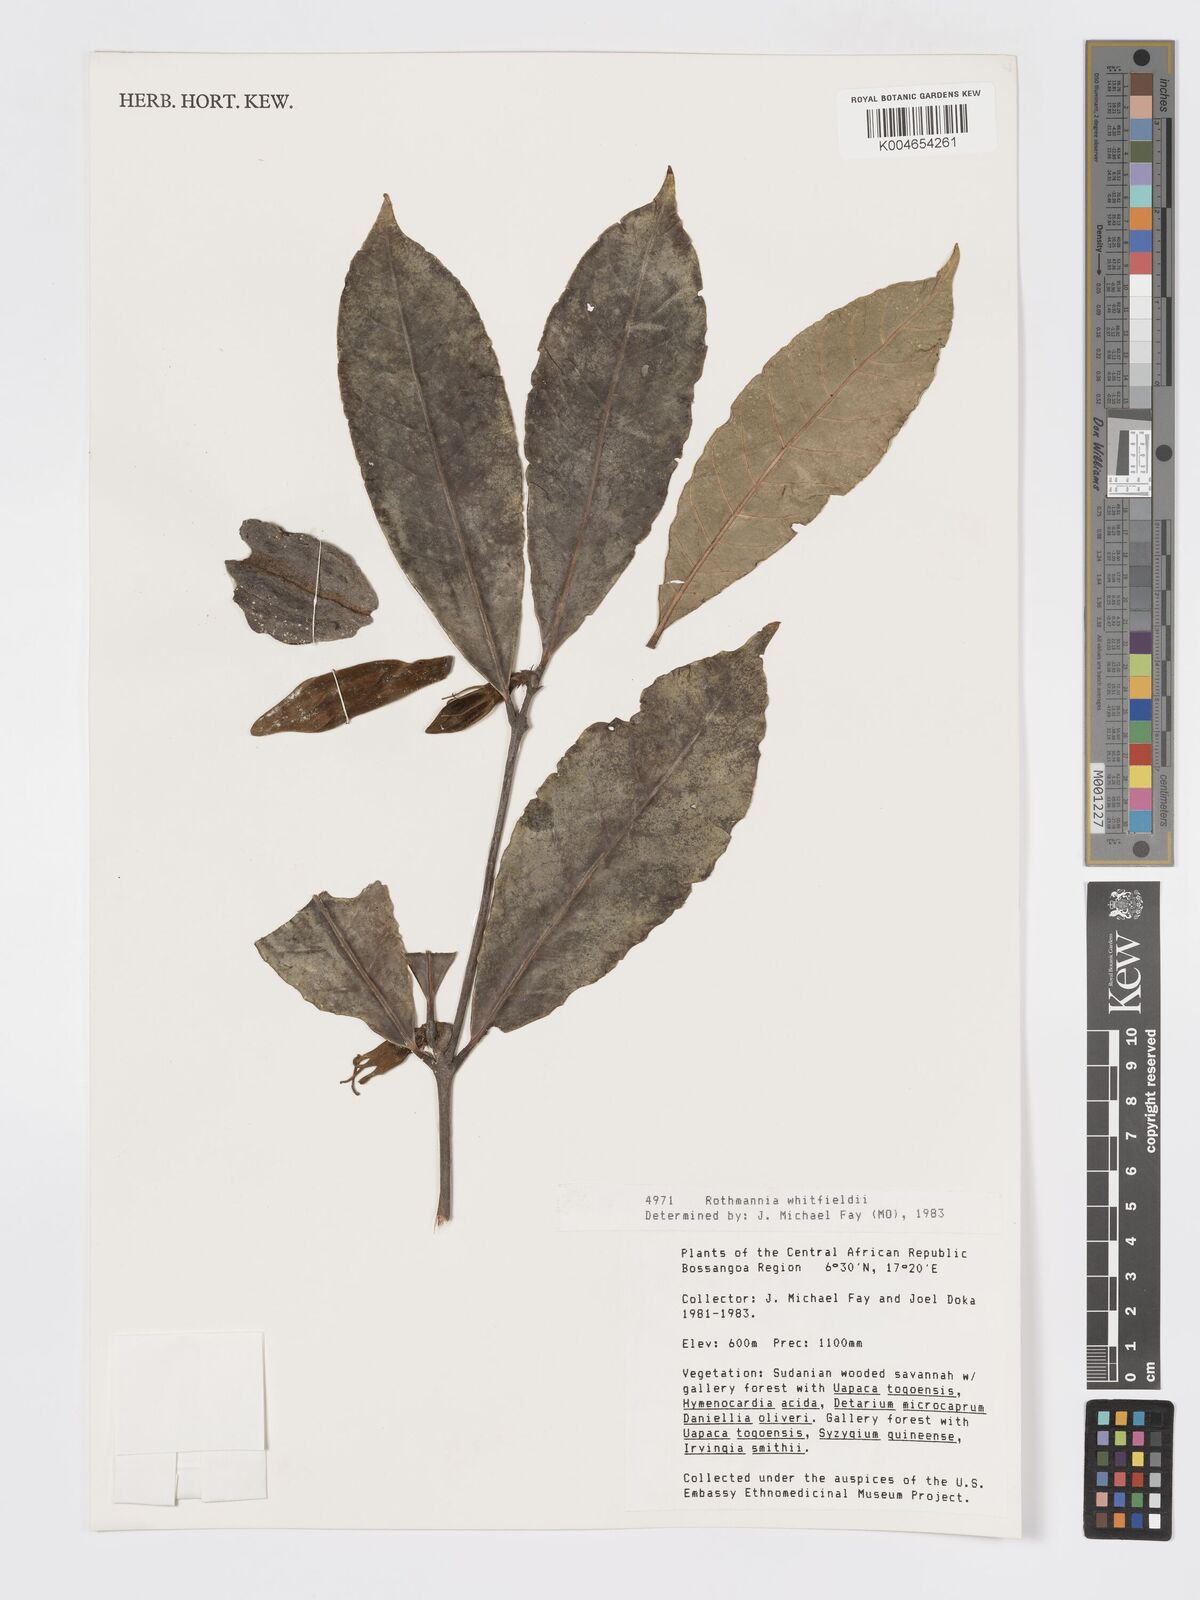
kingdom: Plantae
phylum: Tracheophyta
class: Magnoliopsida
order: Gentianales
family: Rubiaceae
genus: Rothmannia
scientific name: Rothmannia whitfieldii
